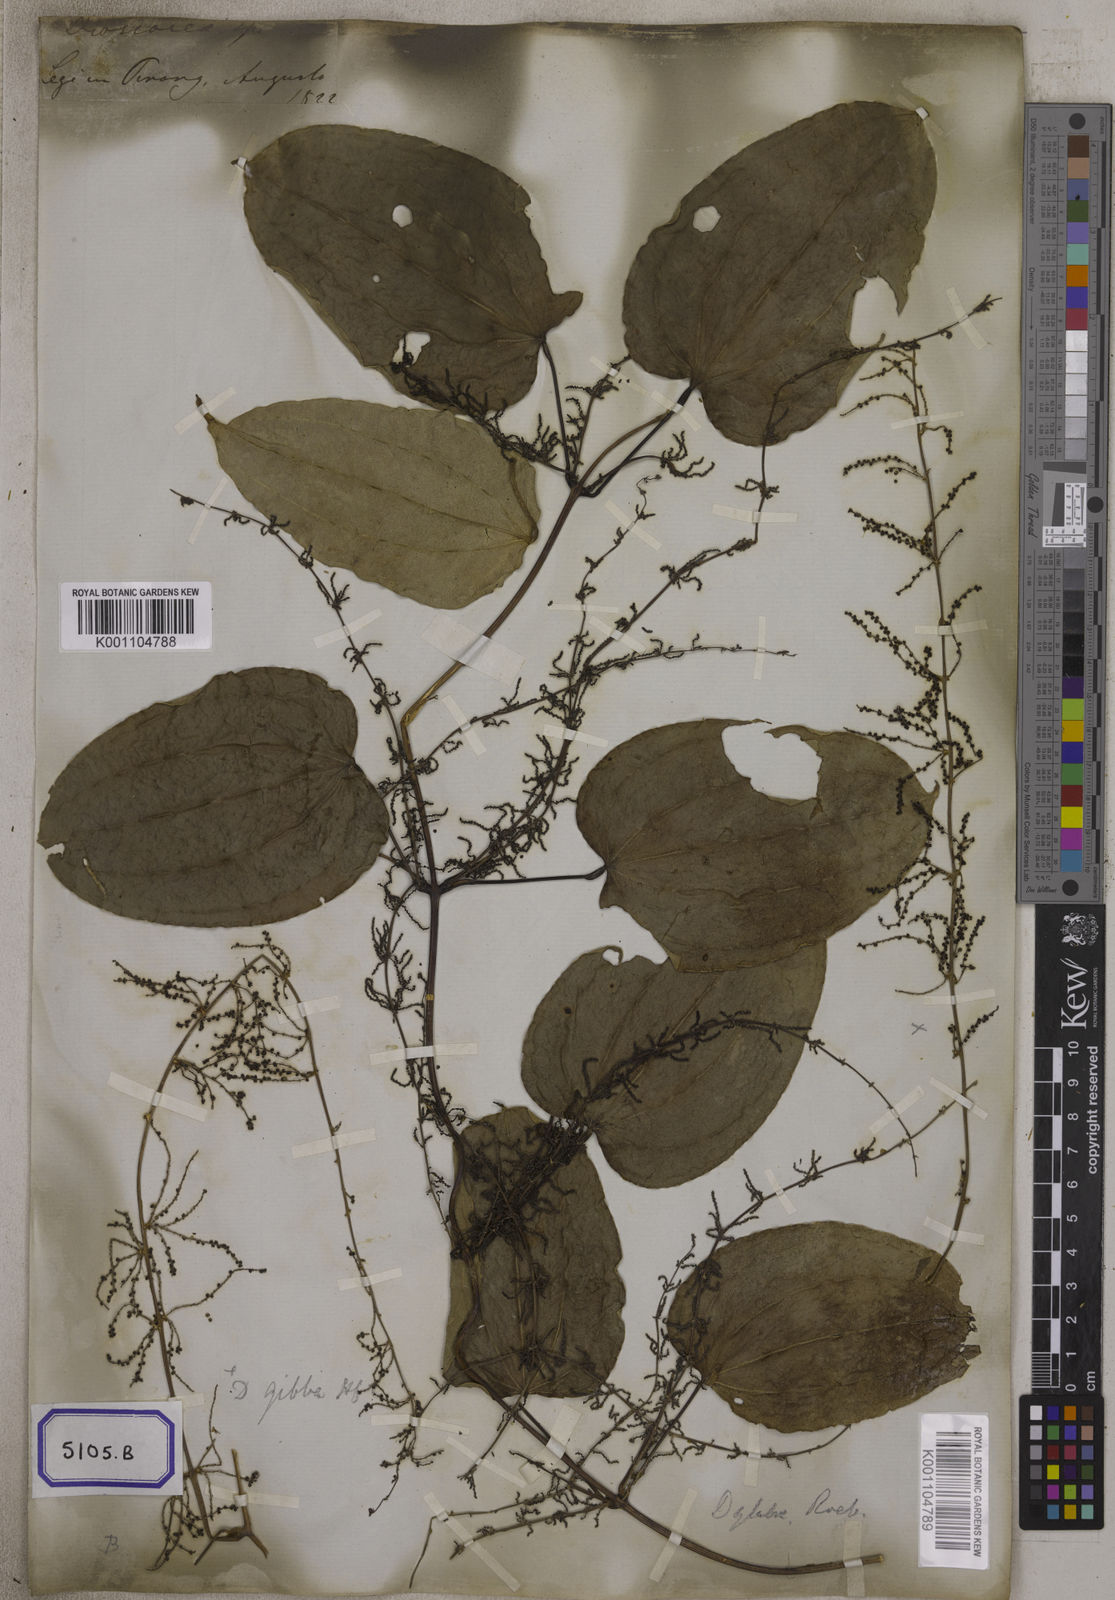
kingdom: Plantae
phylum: Tracheophyta
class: Liliopsida
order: Dioscoreales
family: Dioscoreaceae
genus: Dioscorea
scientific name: Dioscorea glabra
